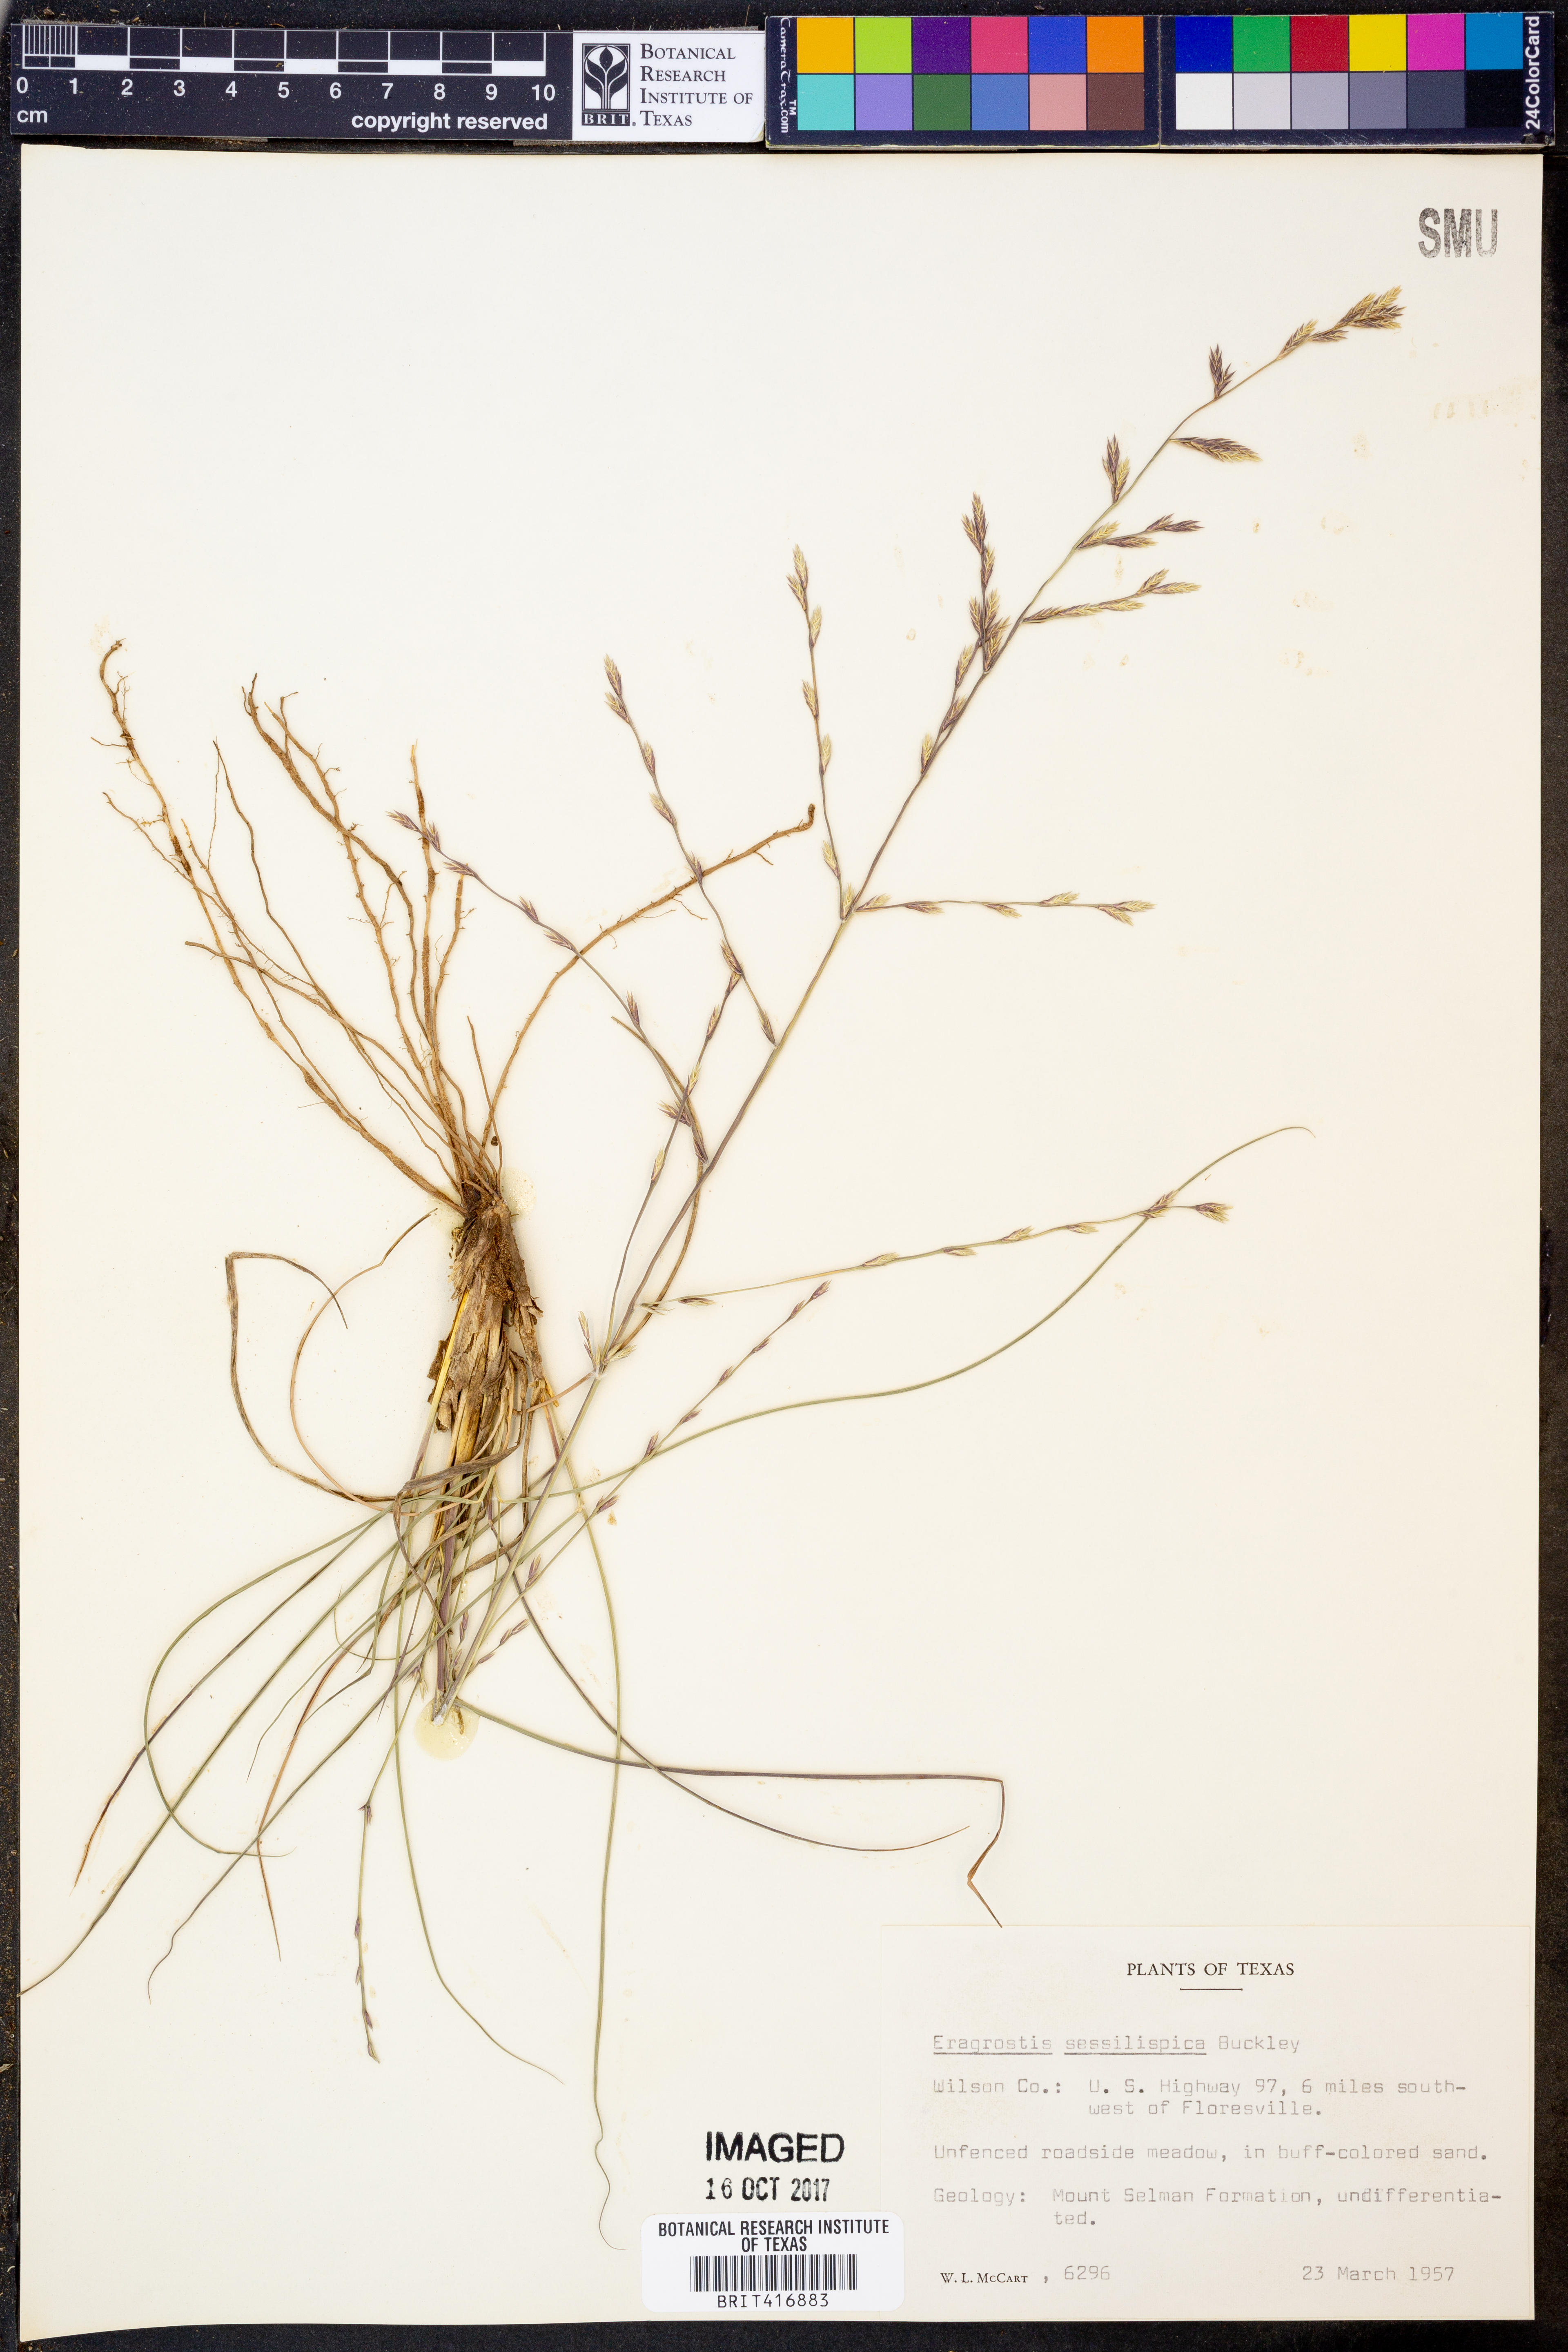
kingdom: Plantae
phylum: Tracheophyta
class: Liliopsida
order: Poales
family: Poaceae
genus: Eragrostis
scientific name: Eragrostis sessilispica
